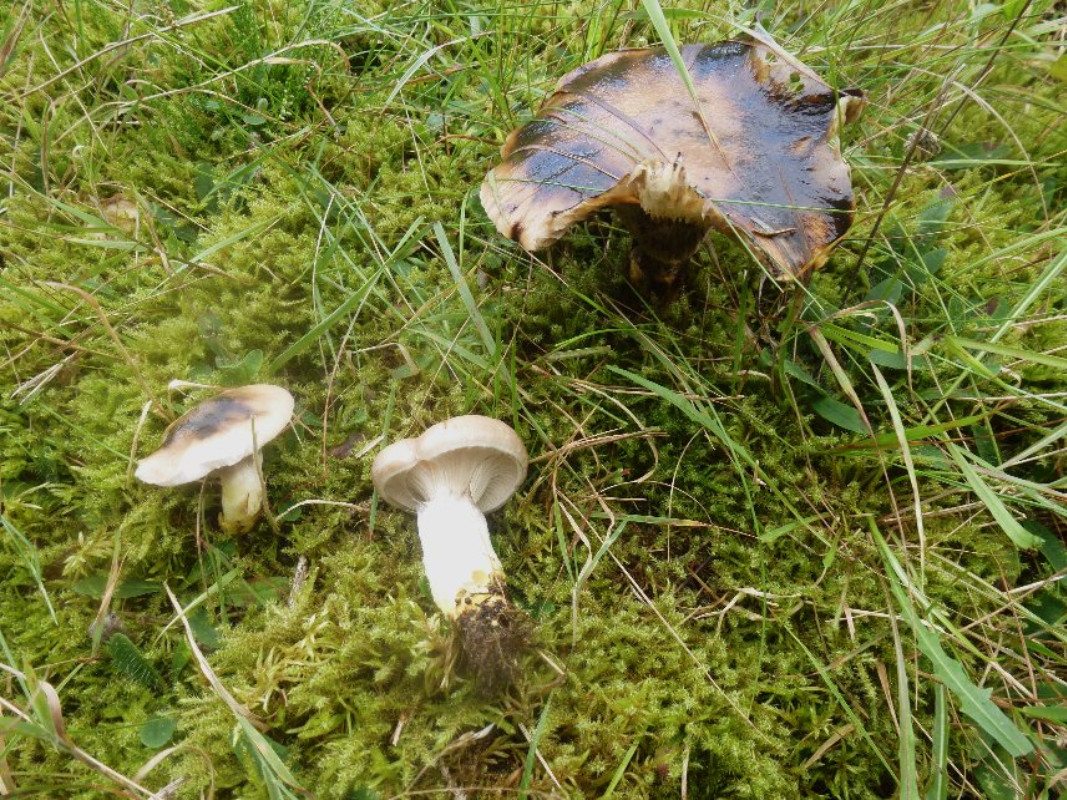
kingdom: Fungi
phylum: Basidiomycota
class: Agaricomycetes
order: Boletales
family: Gomphidiaceae
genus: Gomphidius
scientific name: Gomphidius glutinosus
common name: grå slimslør
